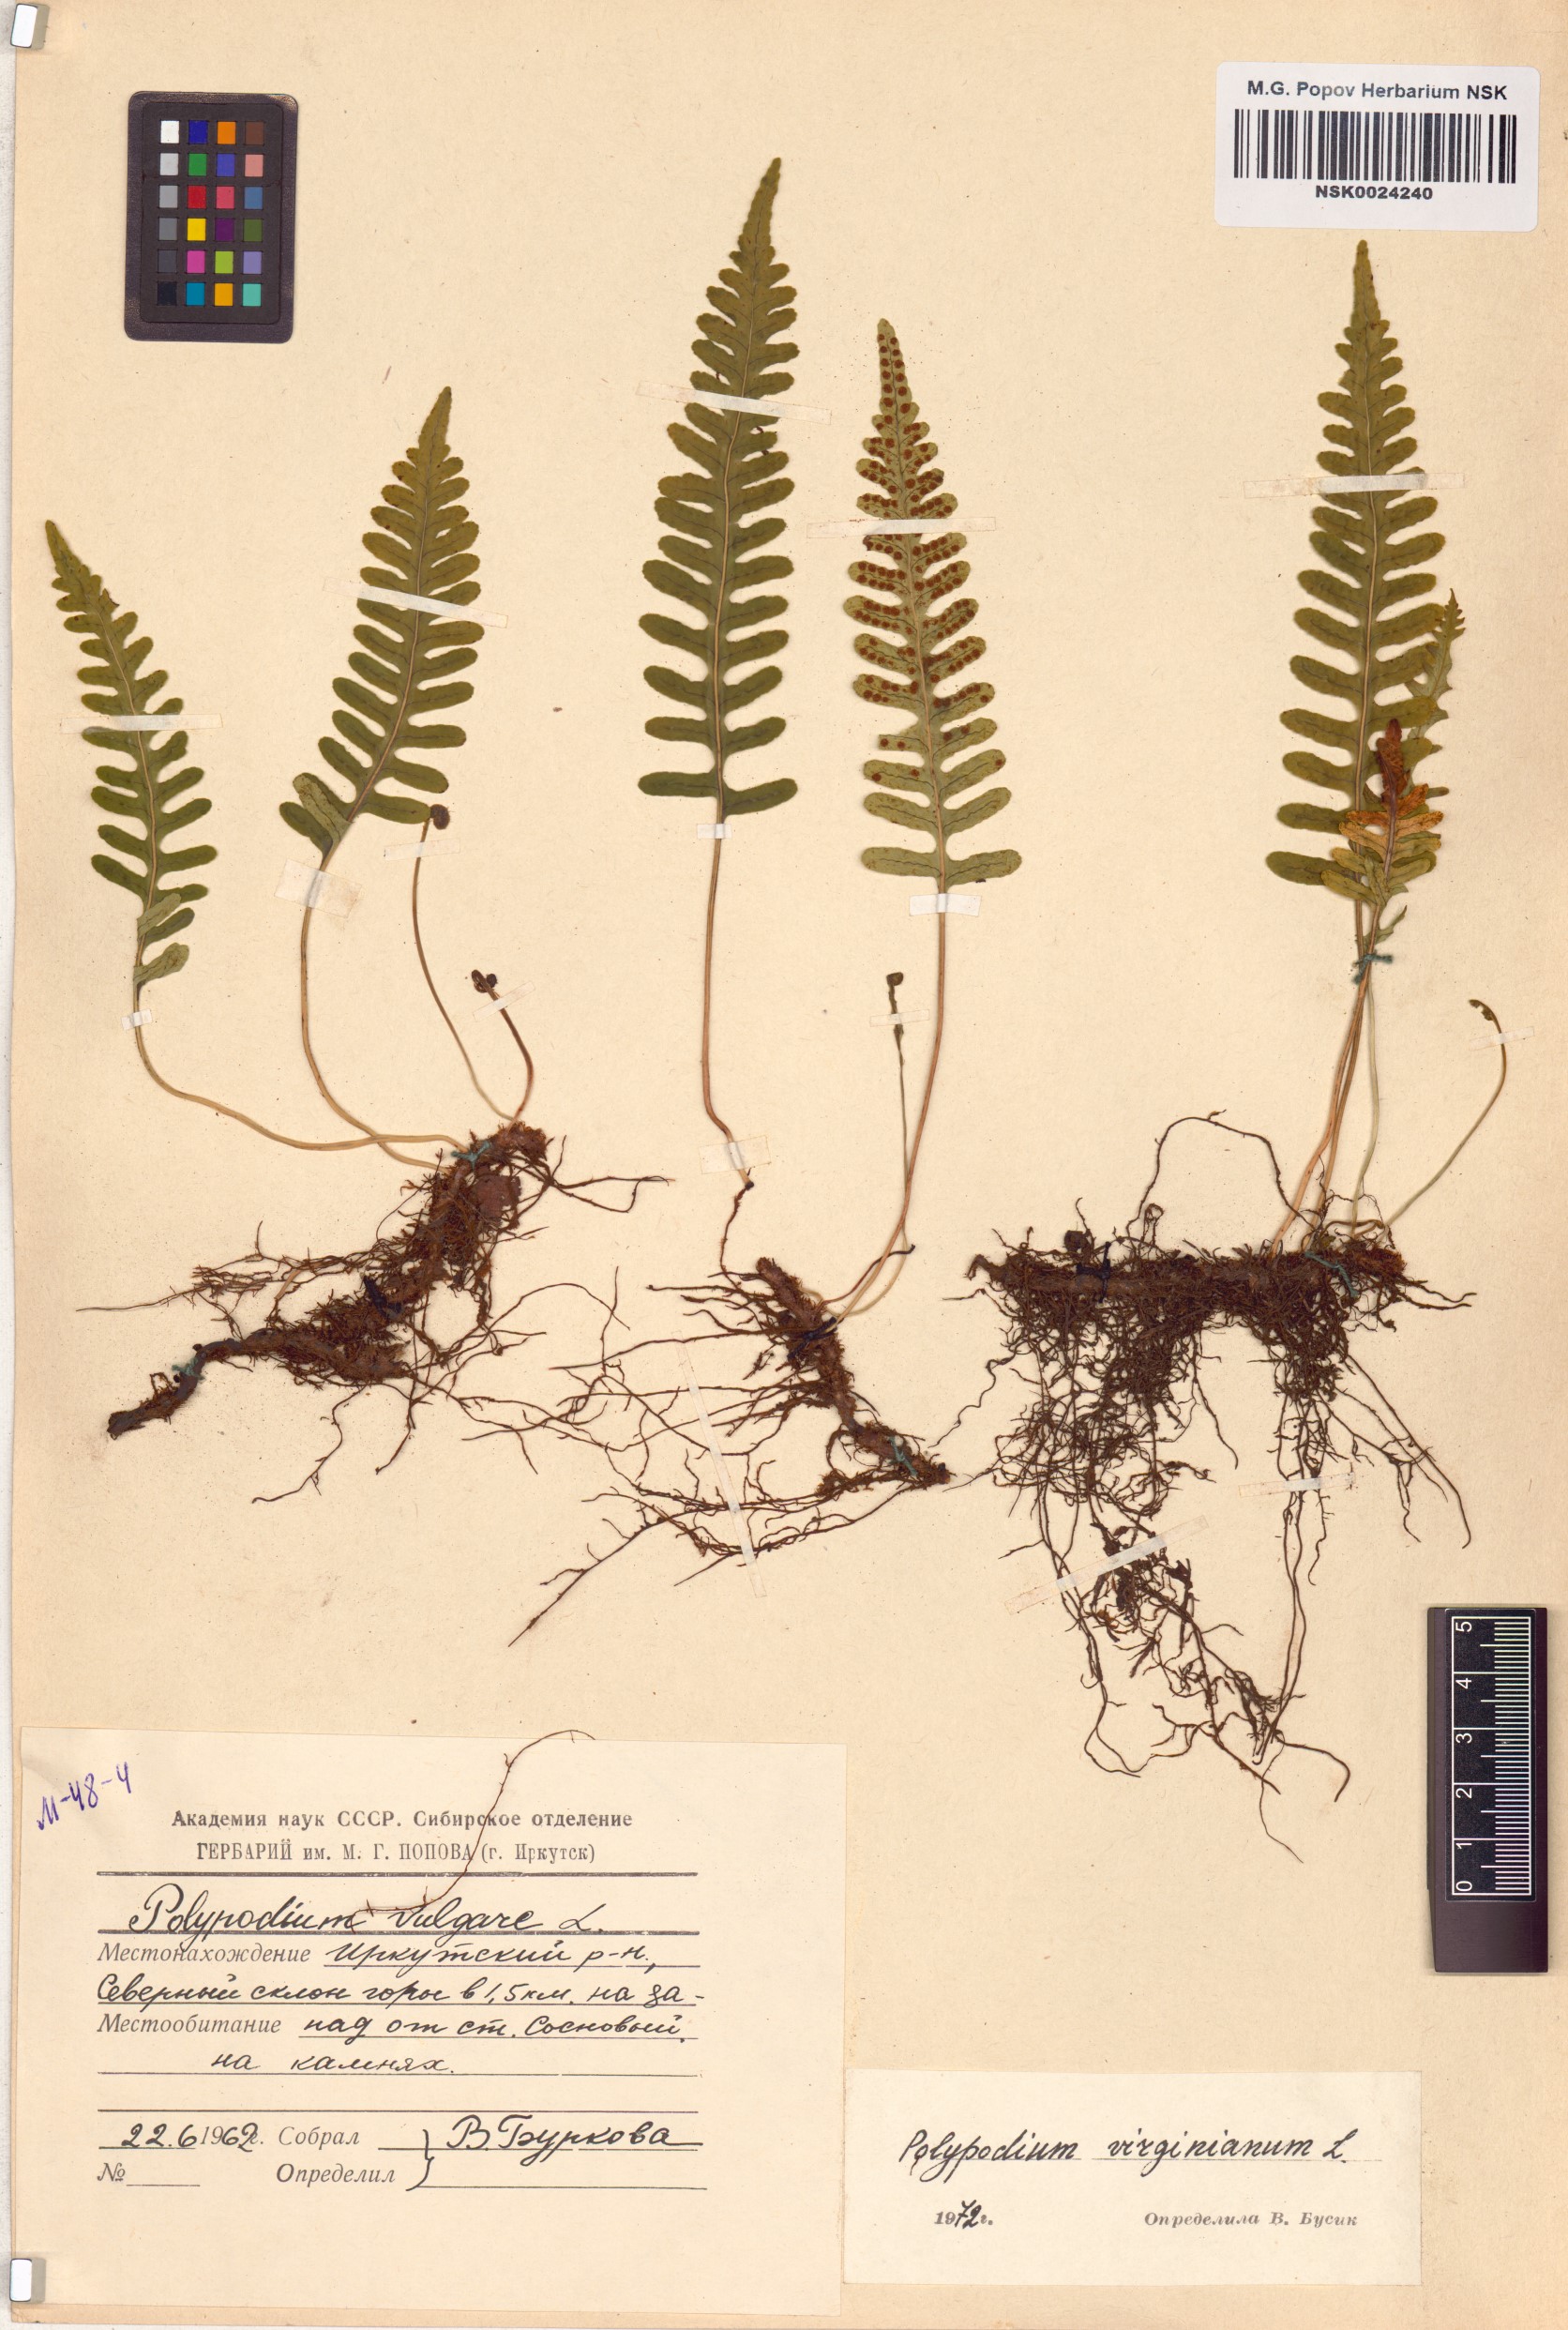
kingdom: Plantae
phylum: Tracheophyta
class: Polypodiopsida
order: Polypodiales
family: Polypodiaceae
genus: Polypodium
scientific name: Polypodium virginianum
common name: American wall fern
